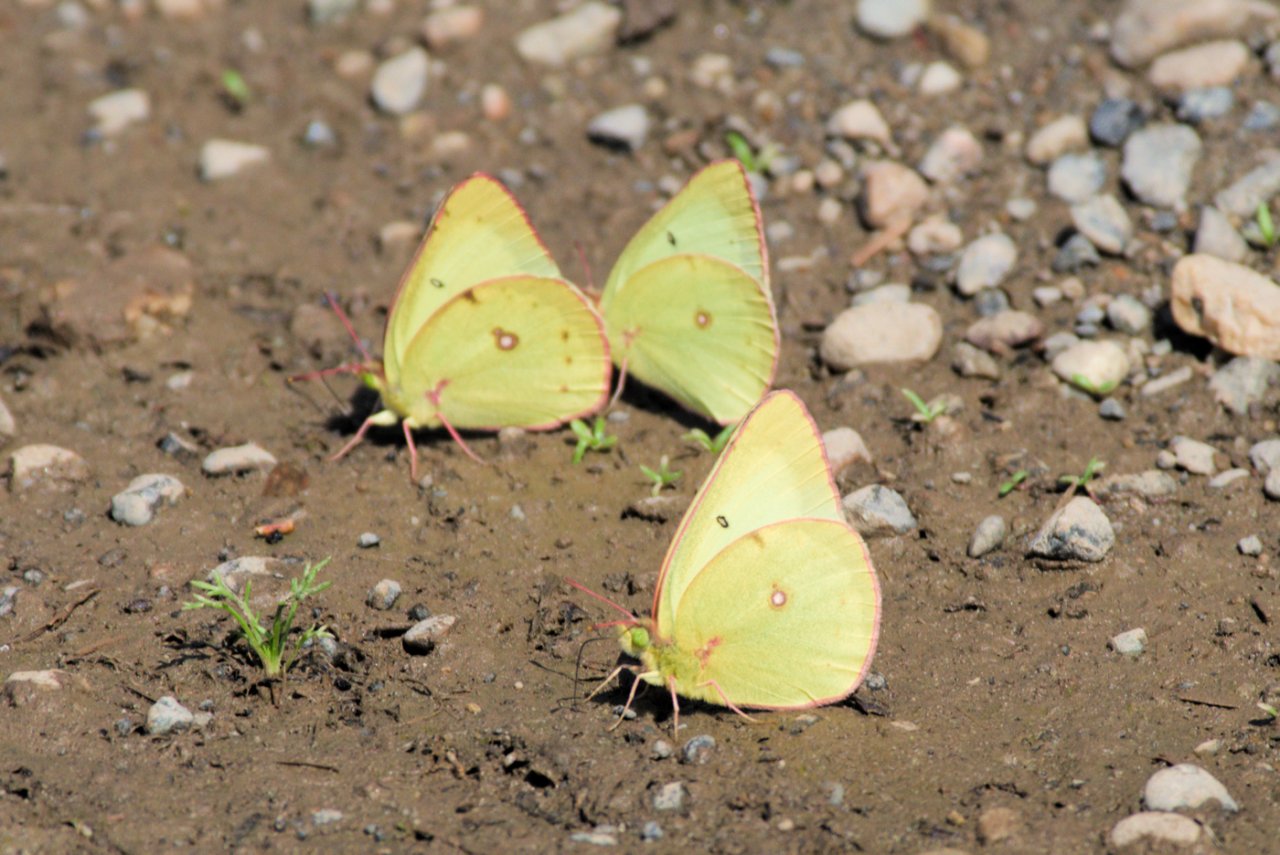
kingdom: Animalia
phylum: Arthropoda
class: Insecta
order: Lepidoptera
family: Pieridae
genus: Colias
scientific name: Colias philodice
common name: Clouded Sulphur
